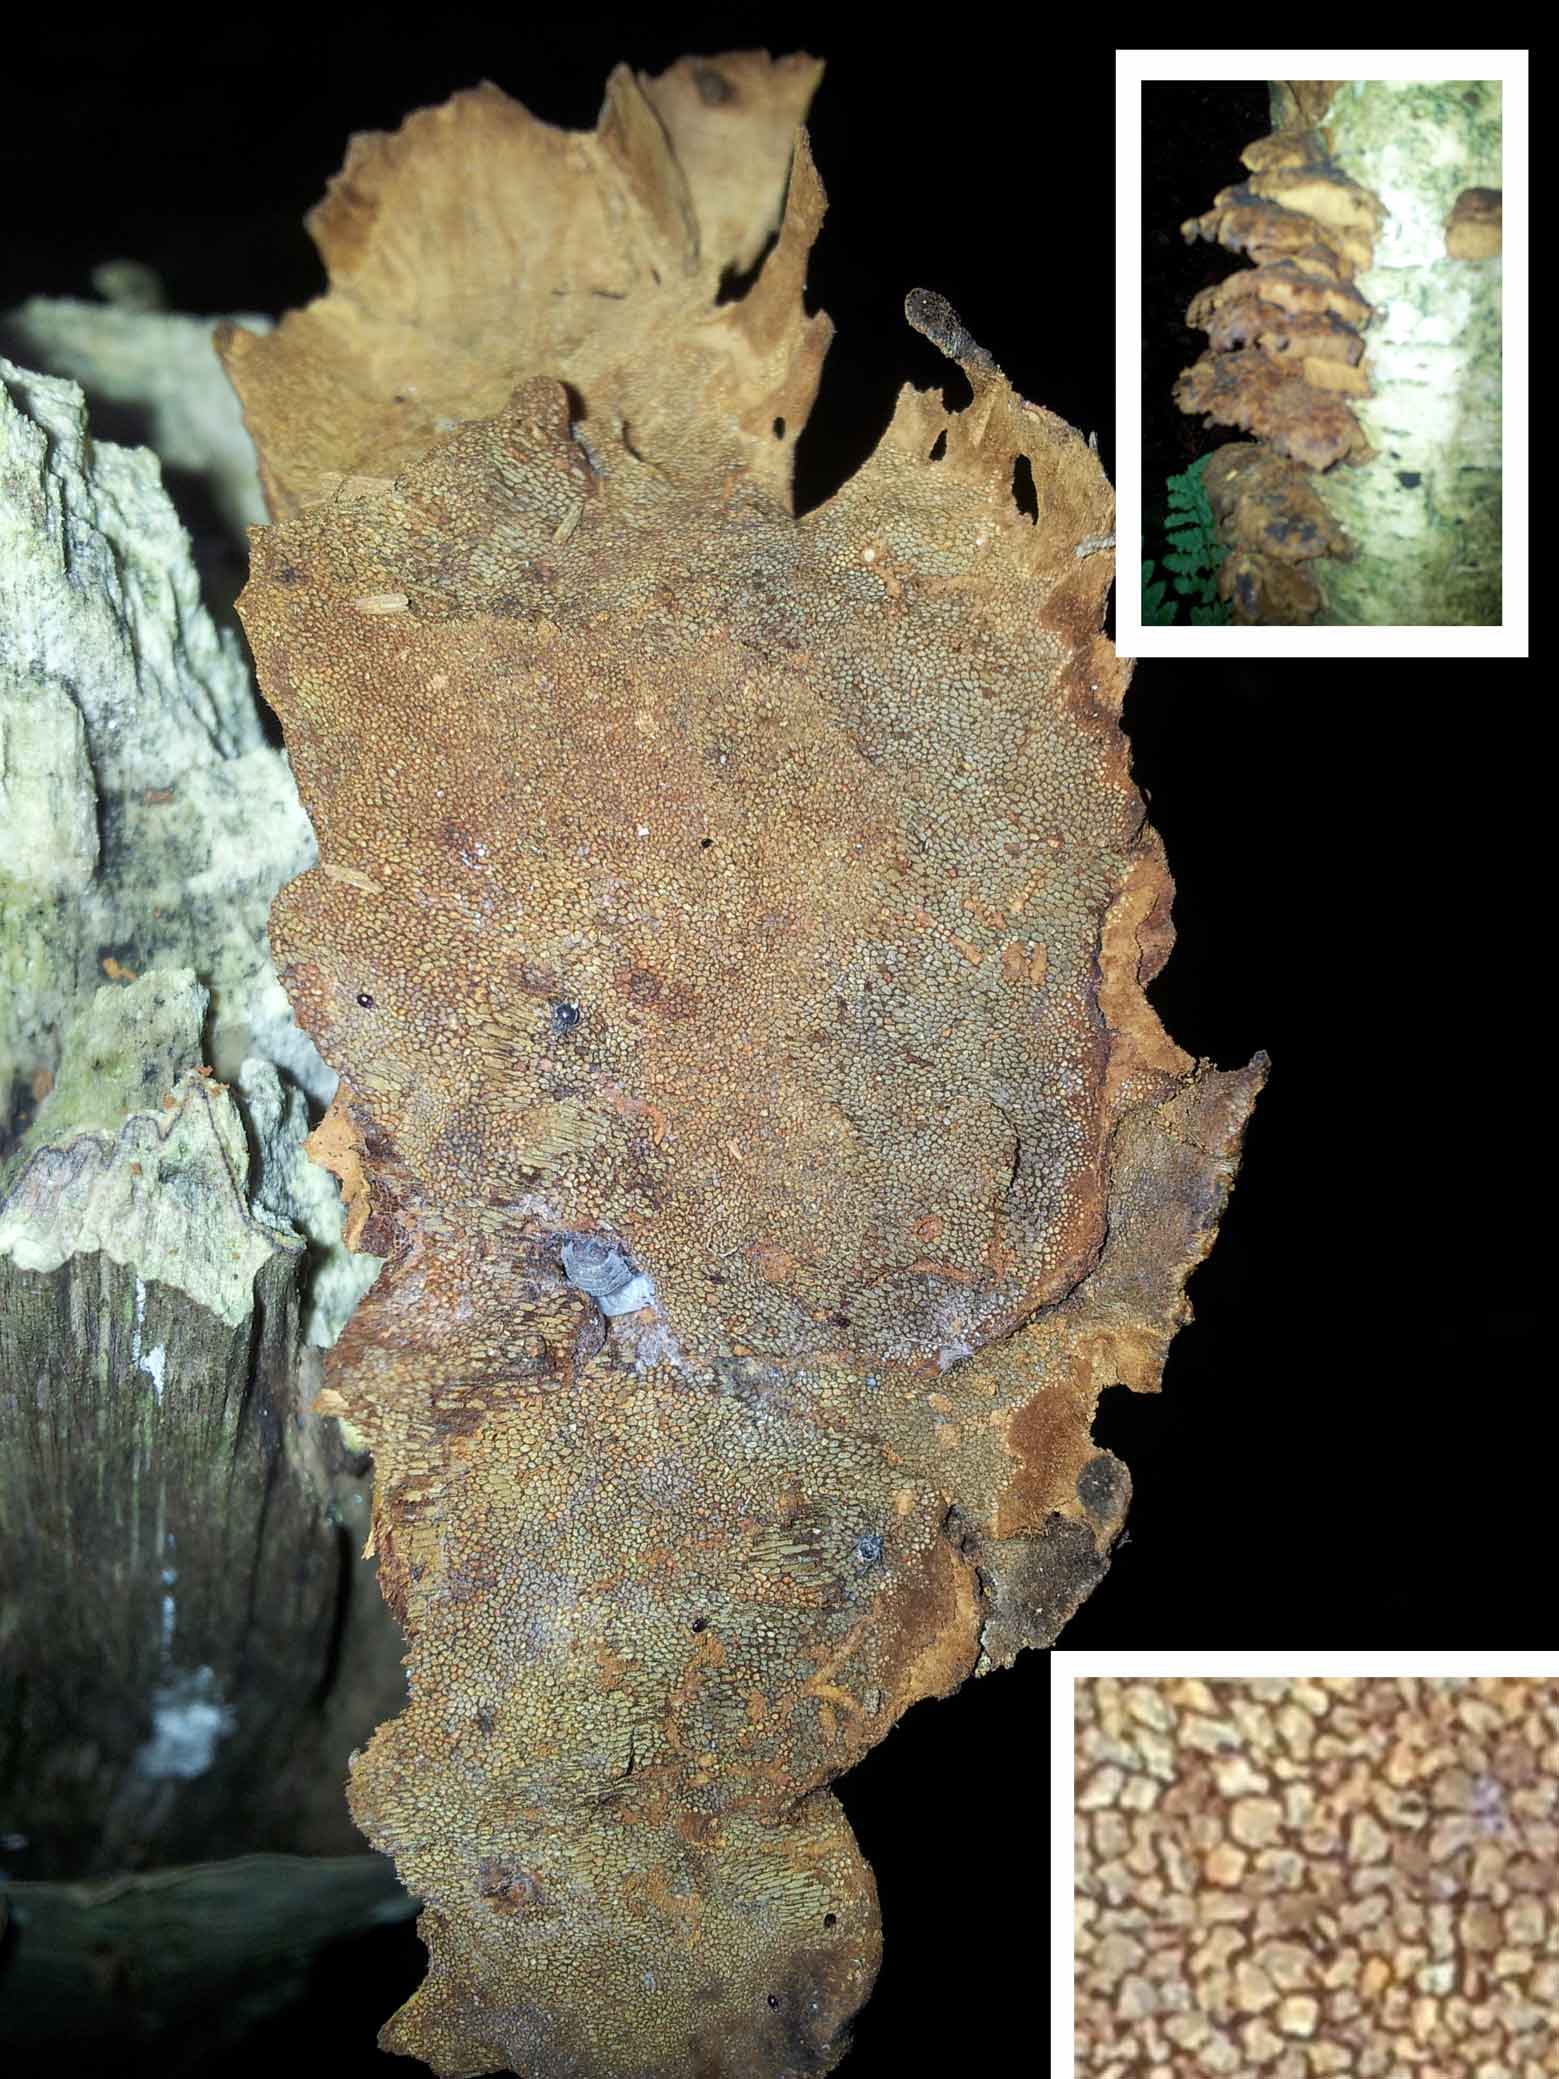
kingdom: Fungi
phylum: Basidiomycota
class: Agaricomycetes
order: Hymenochaetales
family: Hymenochaetaceae
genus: Xanthoporia
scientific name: Xanthoporia radiata
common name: elle-spejlporesvamp
